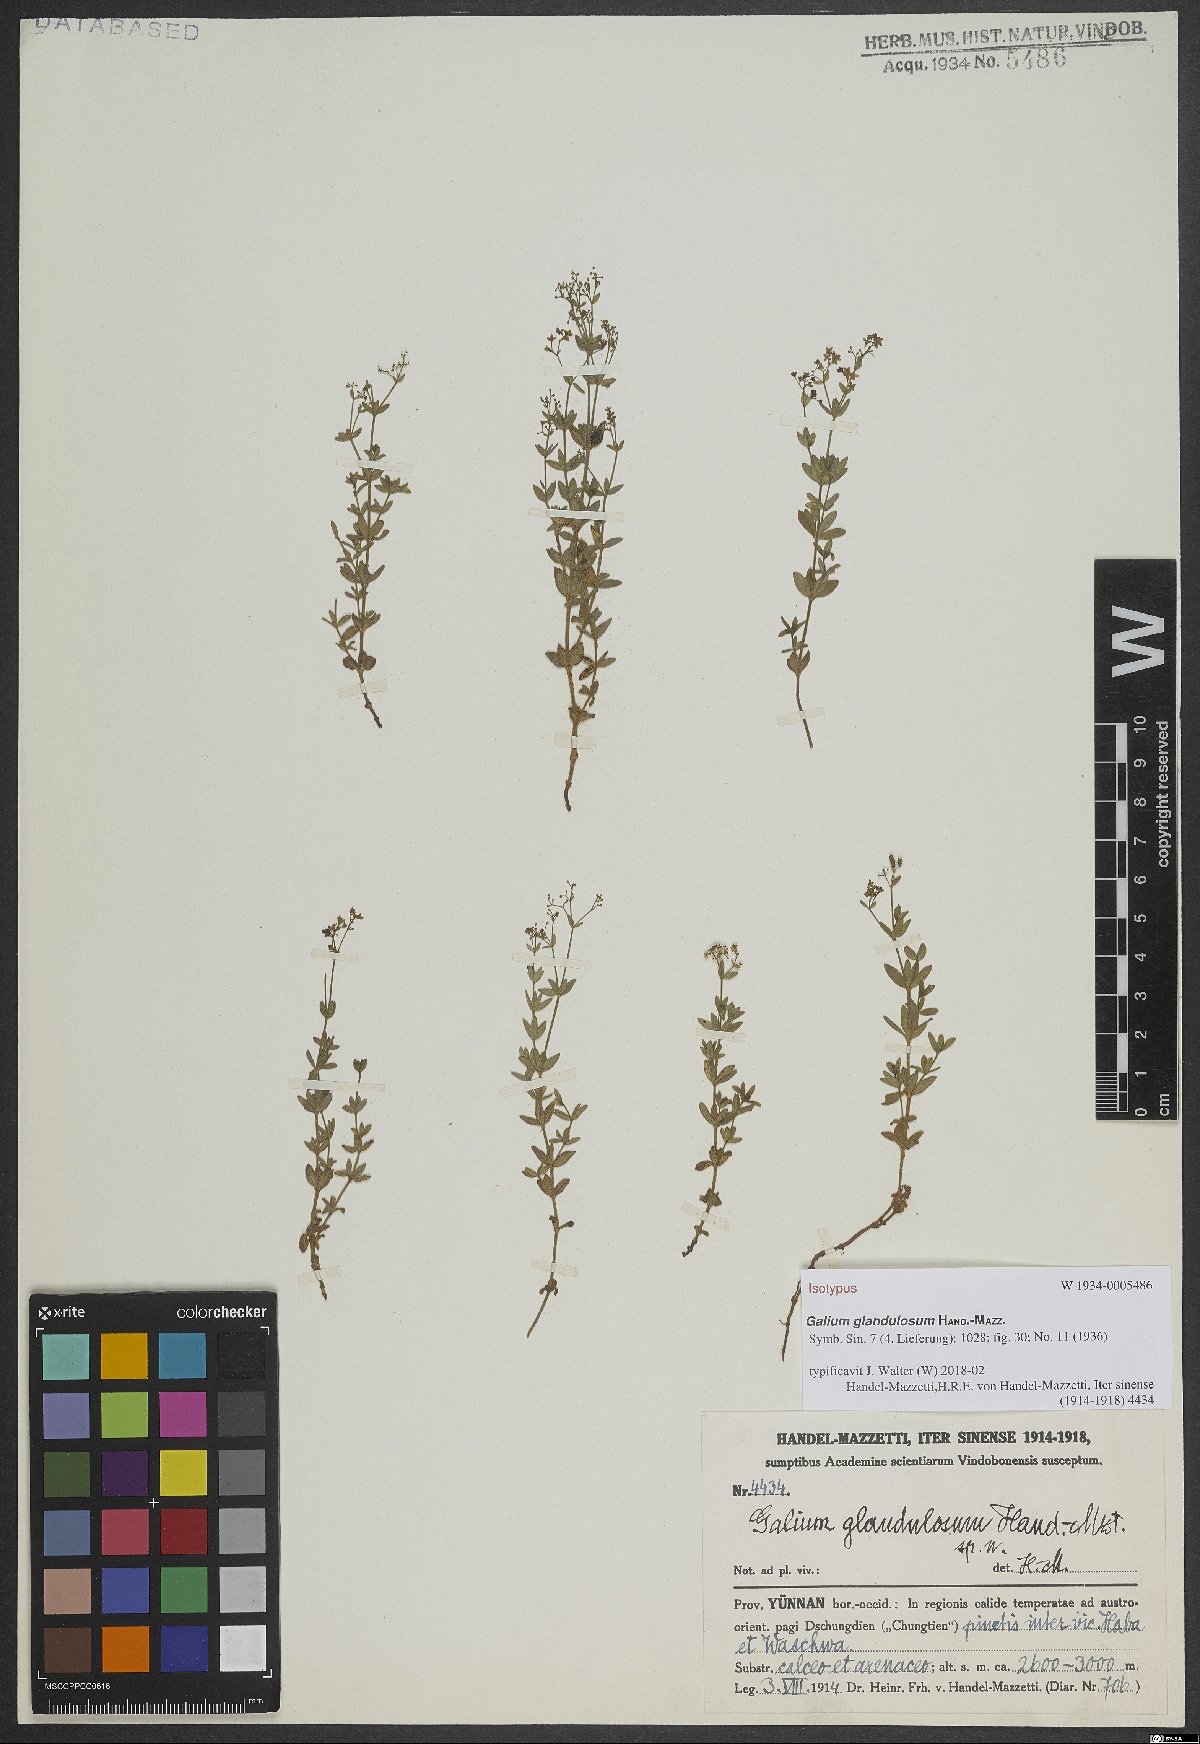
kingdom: Plantae
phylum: Tracheophyta
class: Magnoliopsida
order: Gentianales
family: Rubiaceae
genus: Galium
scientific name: Galium glandulosum
